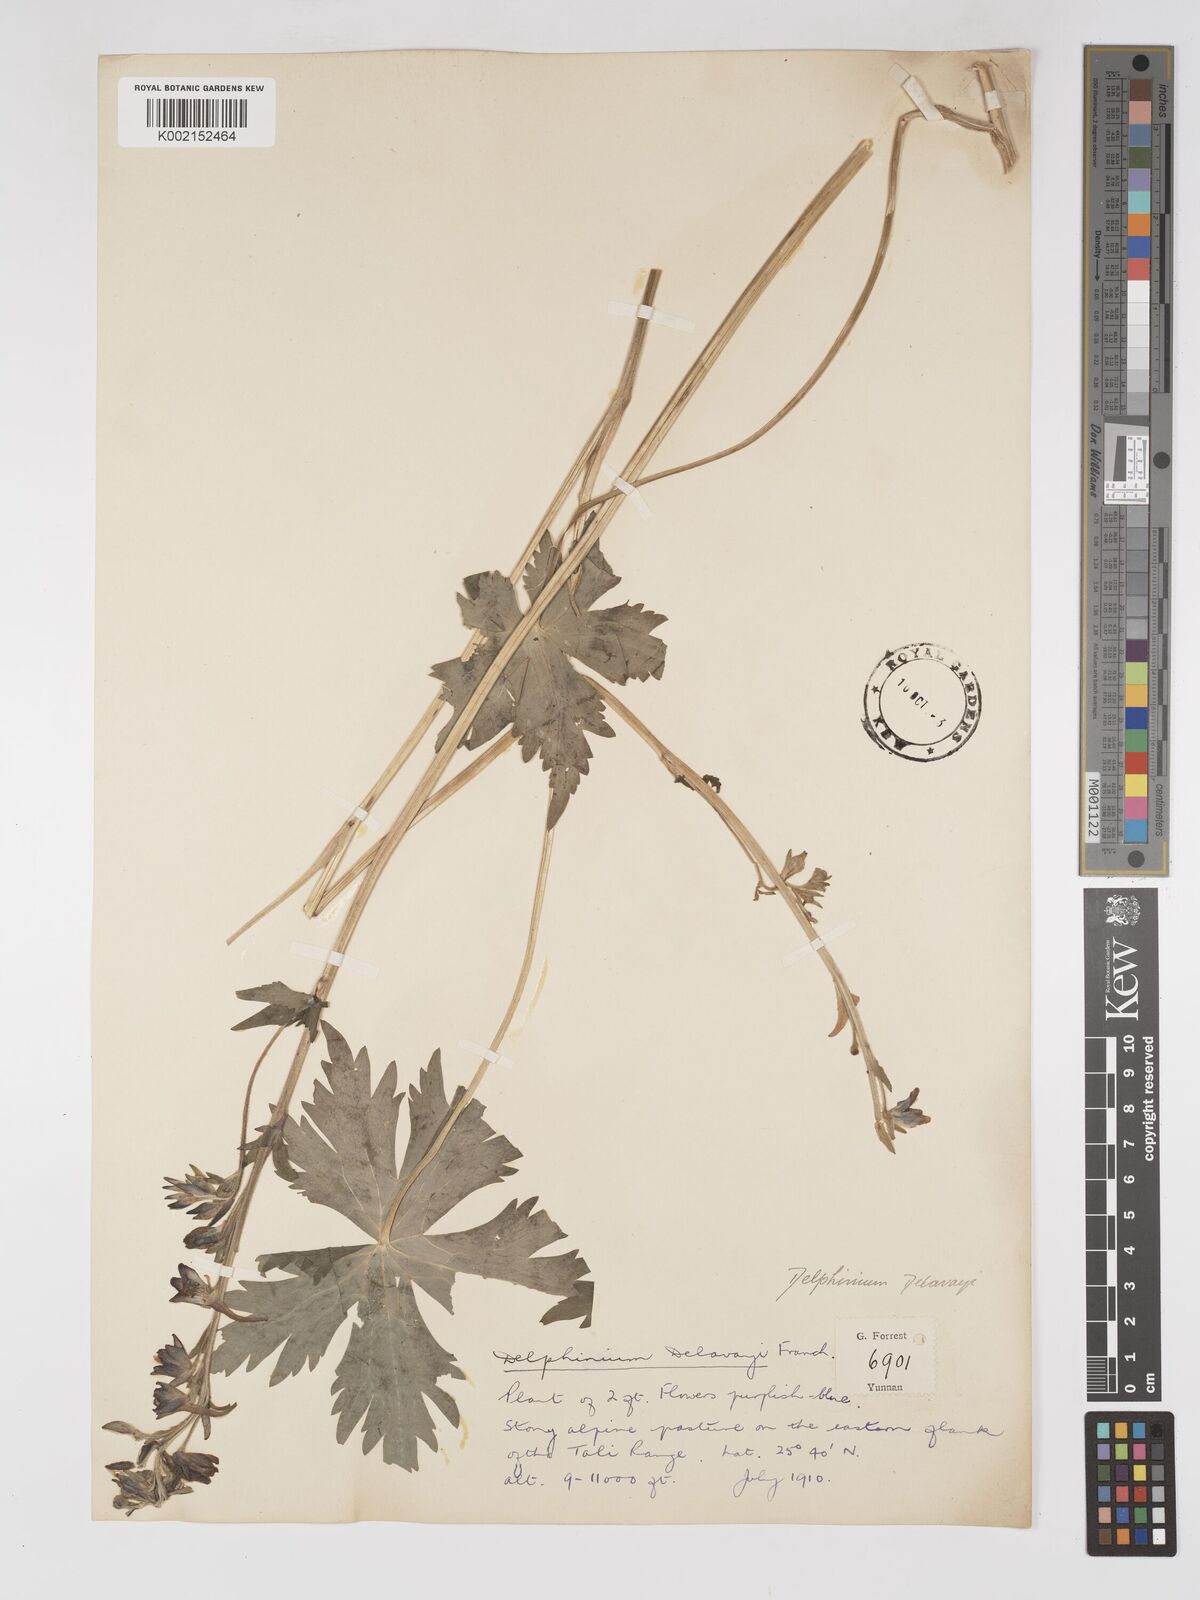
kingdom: Plantae
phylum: Tracheophyta
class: Magnoliopsida
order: Ranunculales
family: Ranunculaceae
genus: Delphinium
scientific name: Delphinium delavayi
